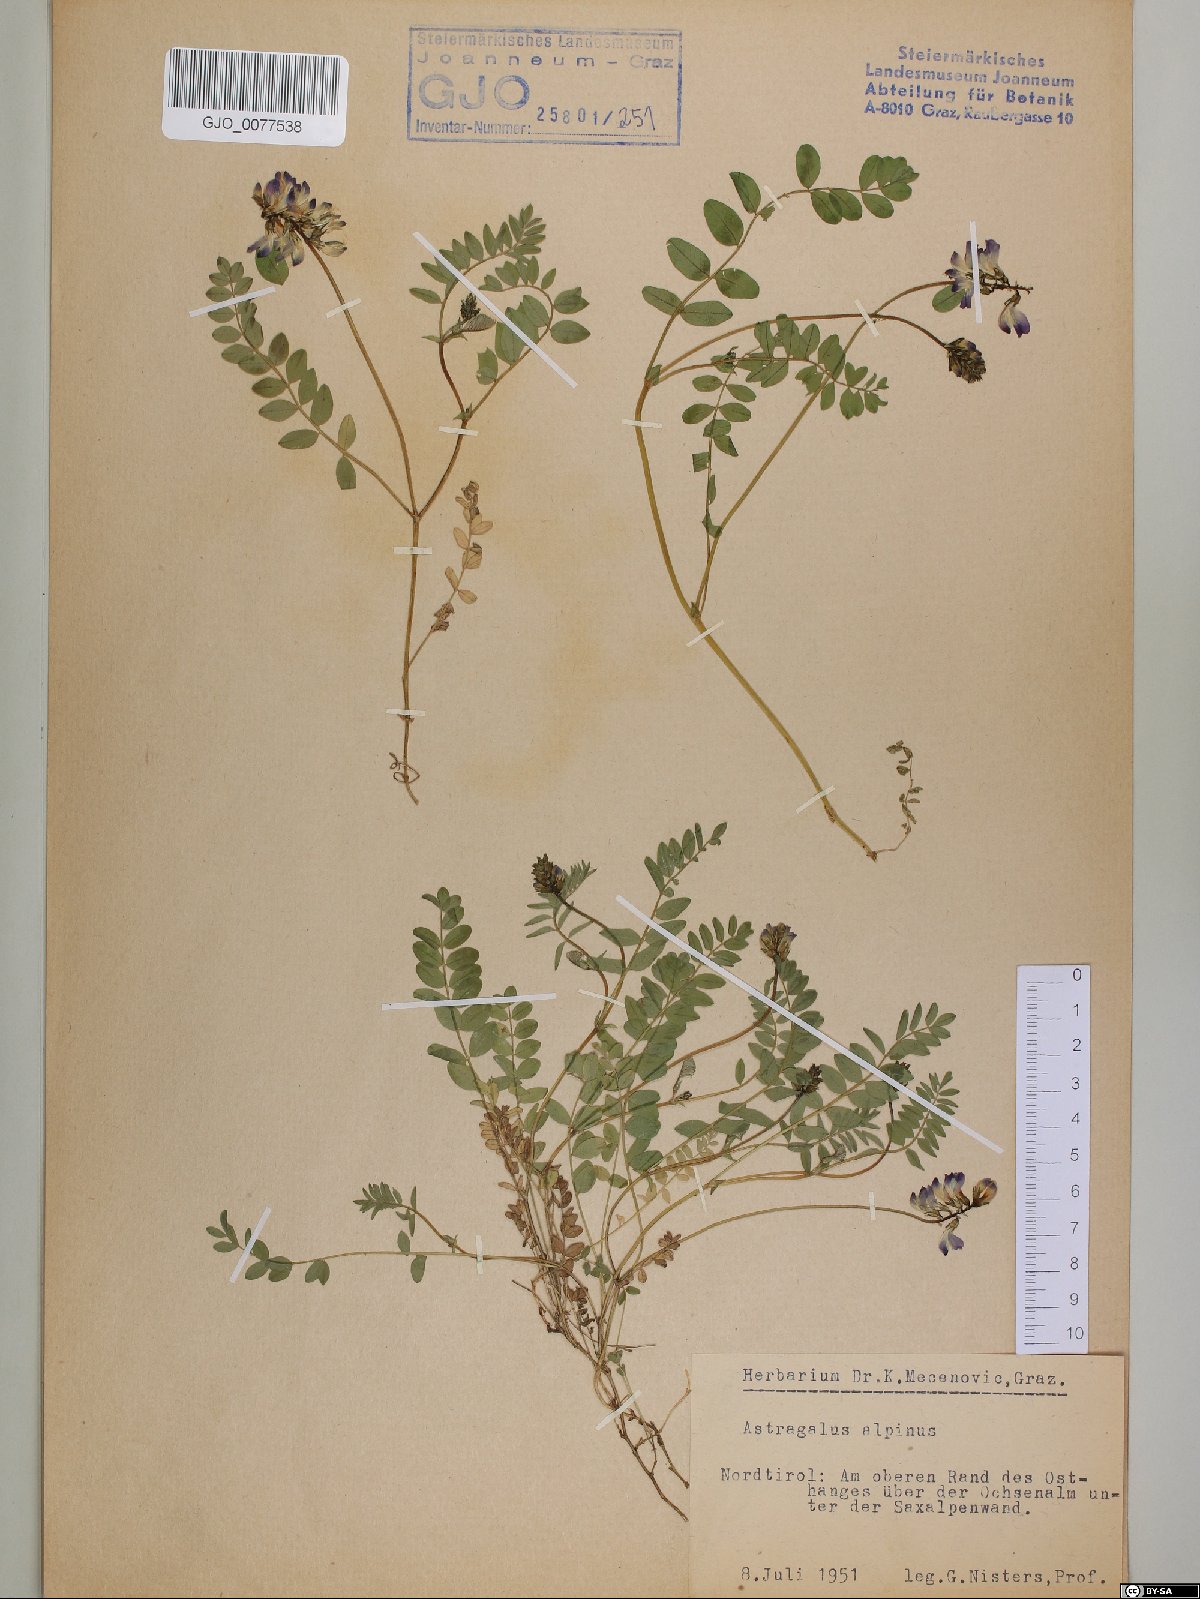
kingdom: Plantae
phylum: Tracheophyta
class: Magnoliopsida
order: Fabales
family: Fabaceae
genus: Astragalus
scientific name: Astragalus alpinus
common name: Alpine milk-vetch
